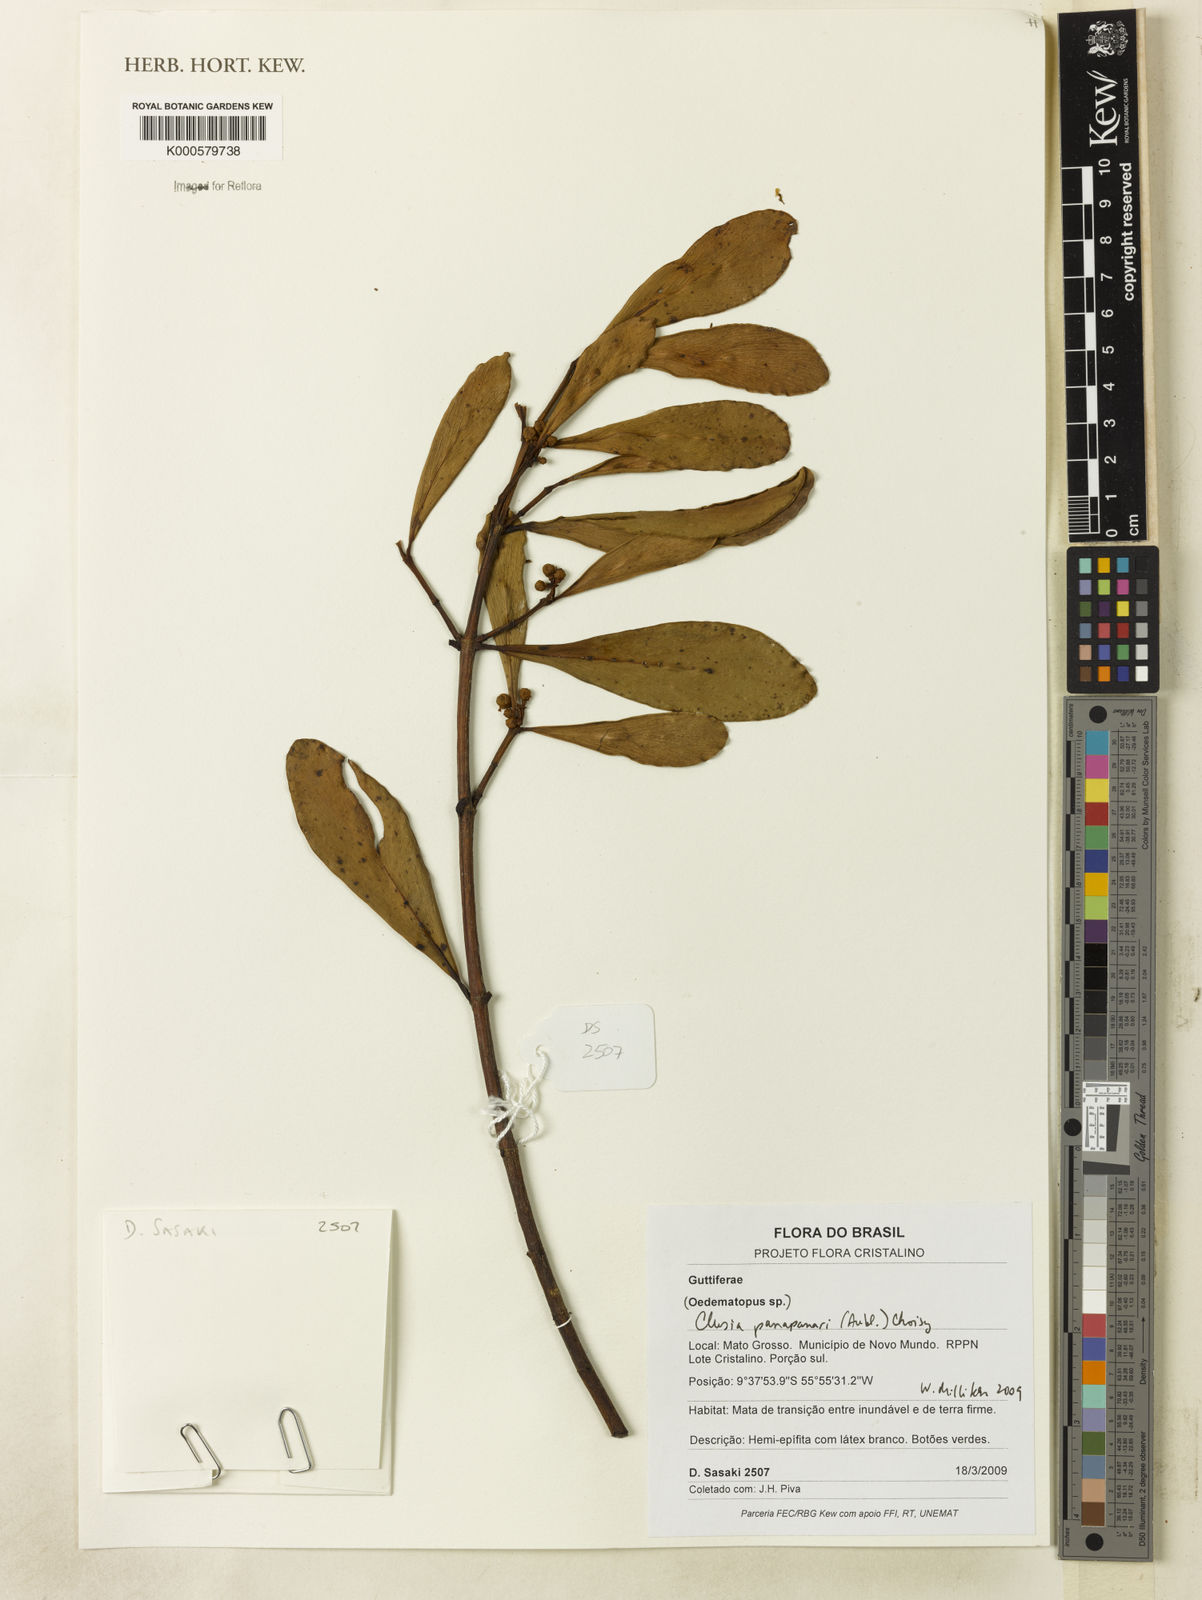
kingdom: Plantae
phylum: Tracheophyta
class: Magnoliopsida
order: Malpighiales
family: Clusiaceae
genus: Clusia
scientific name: Clusia panapanari
